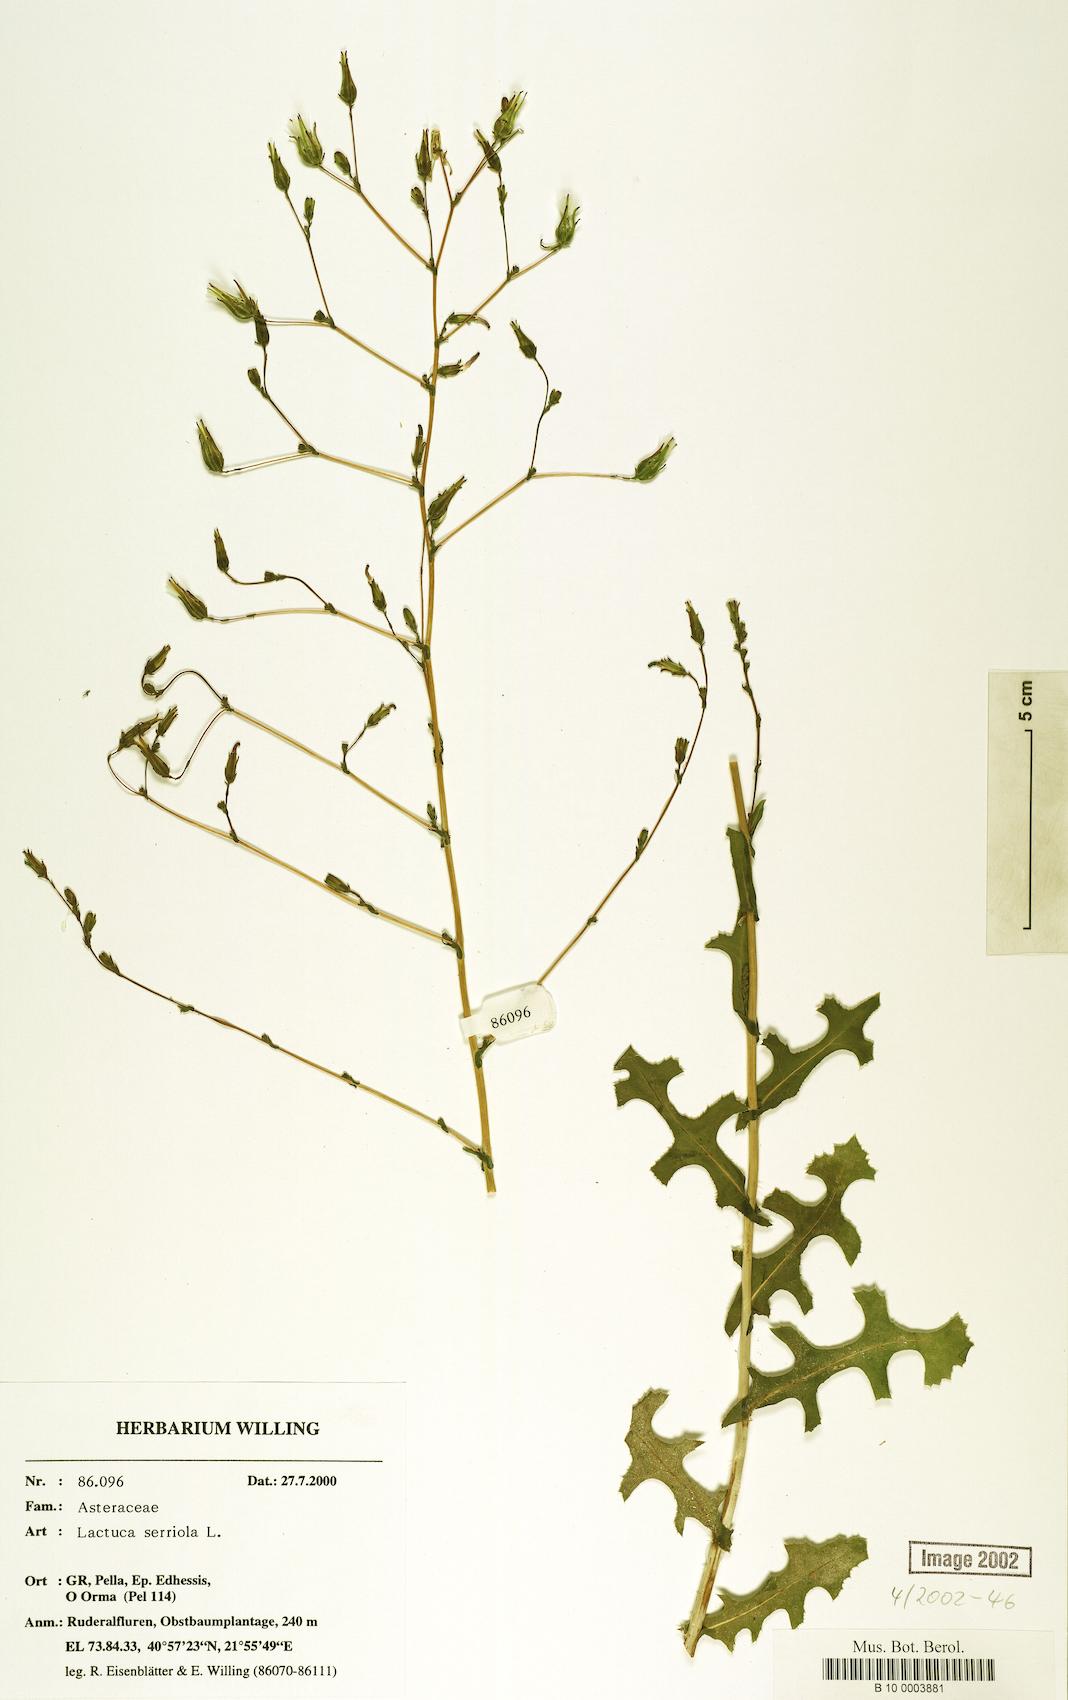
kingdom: Plantae
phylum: Tracheophyta
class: Magnoliopsida
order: Asterales
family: Asteraceae
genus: Lactuca
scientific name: Lactuca serriola
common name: Prickly lettuce
